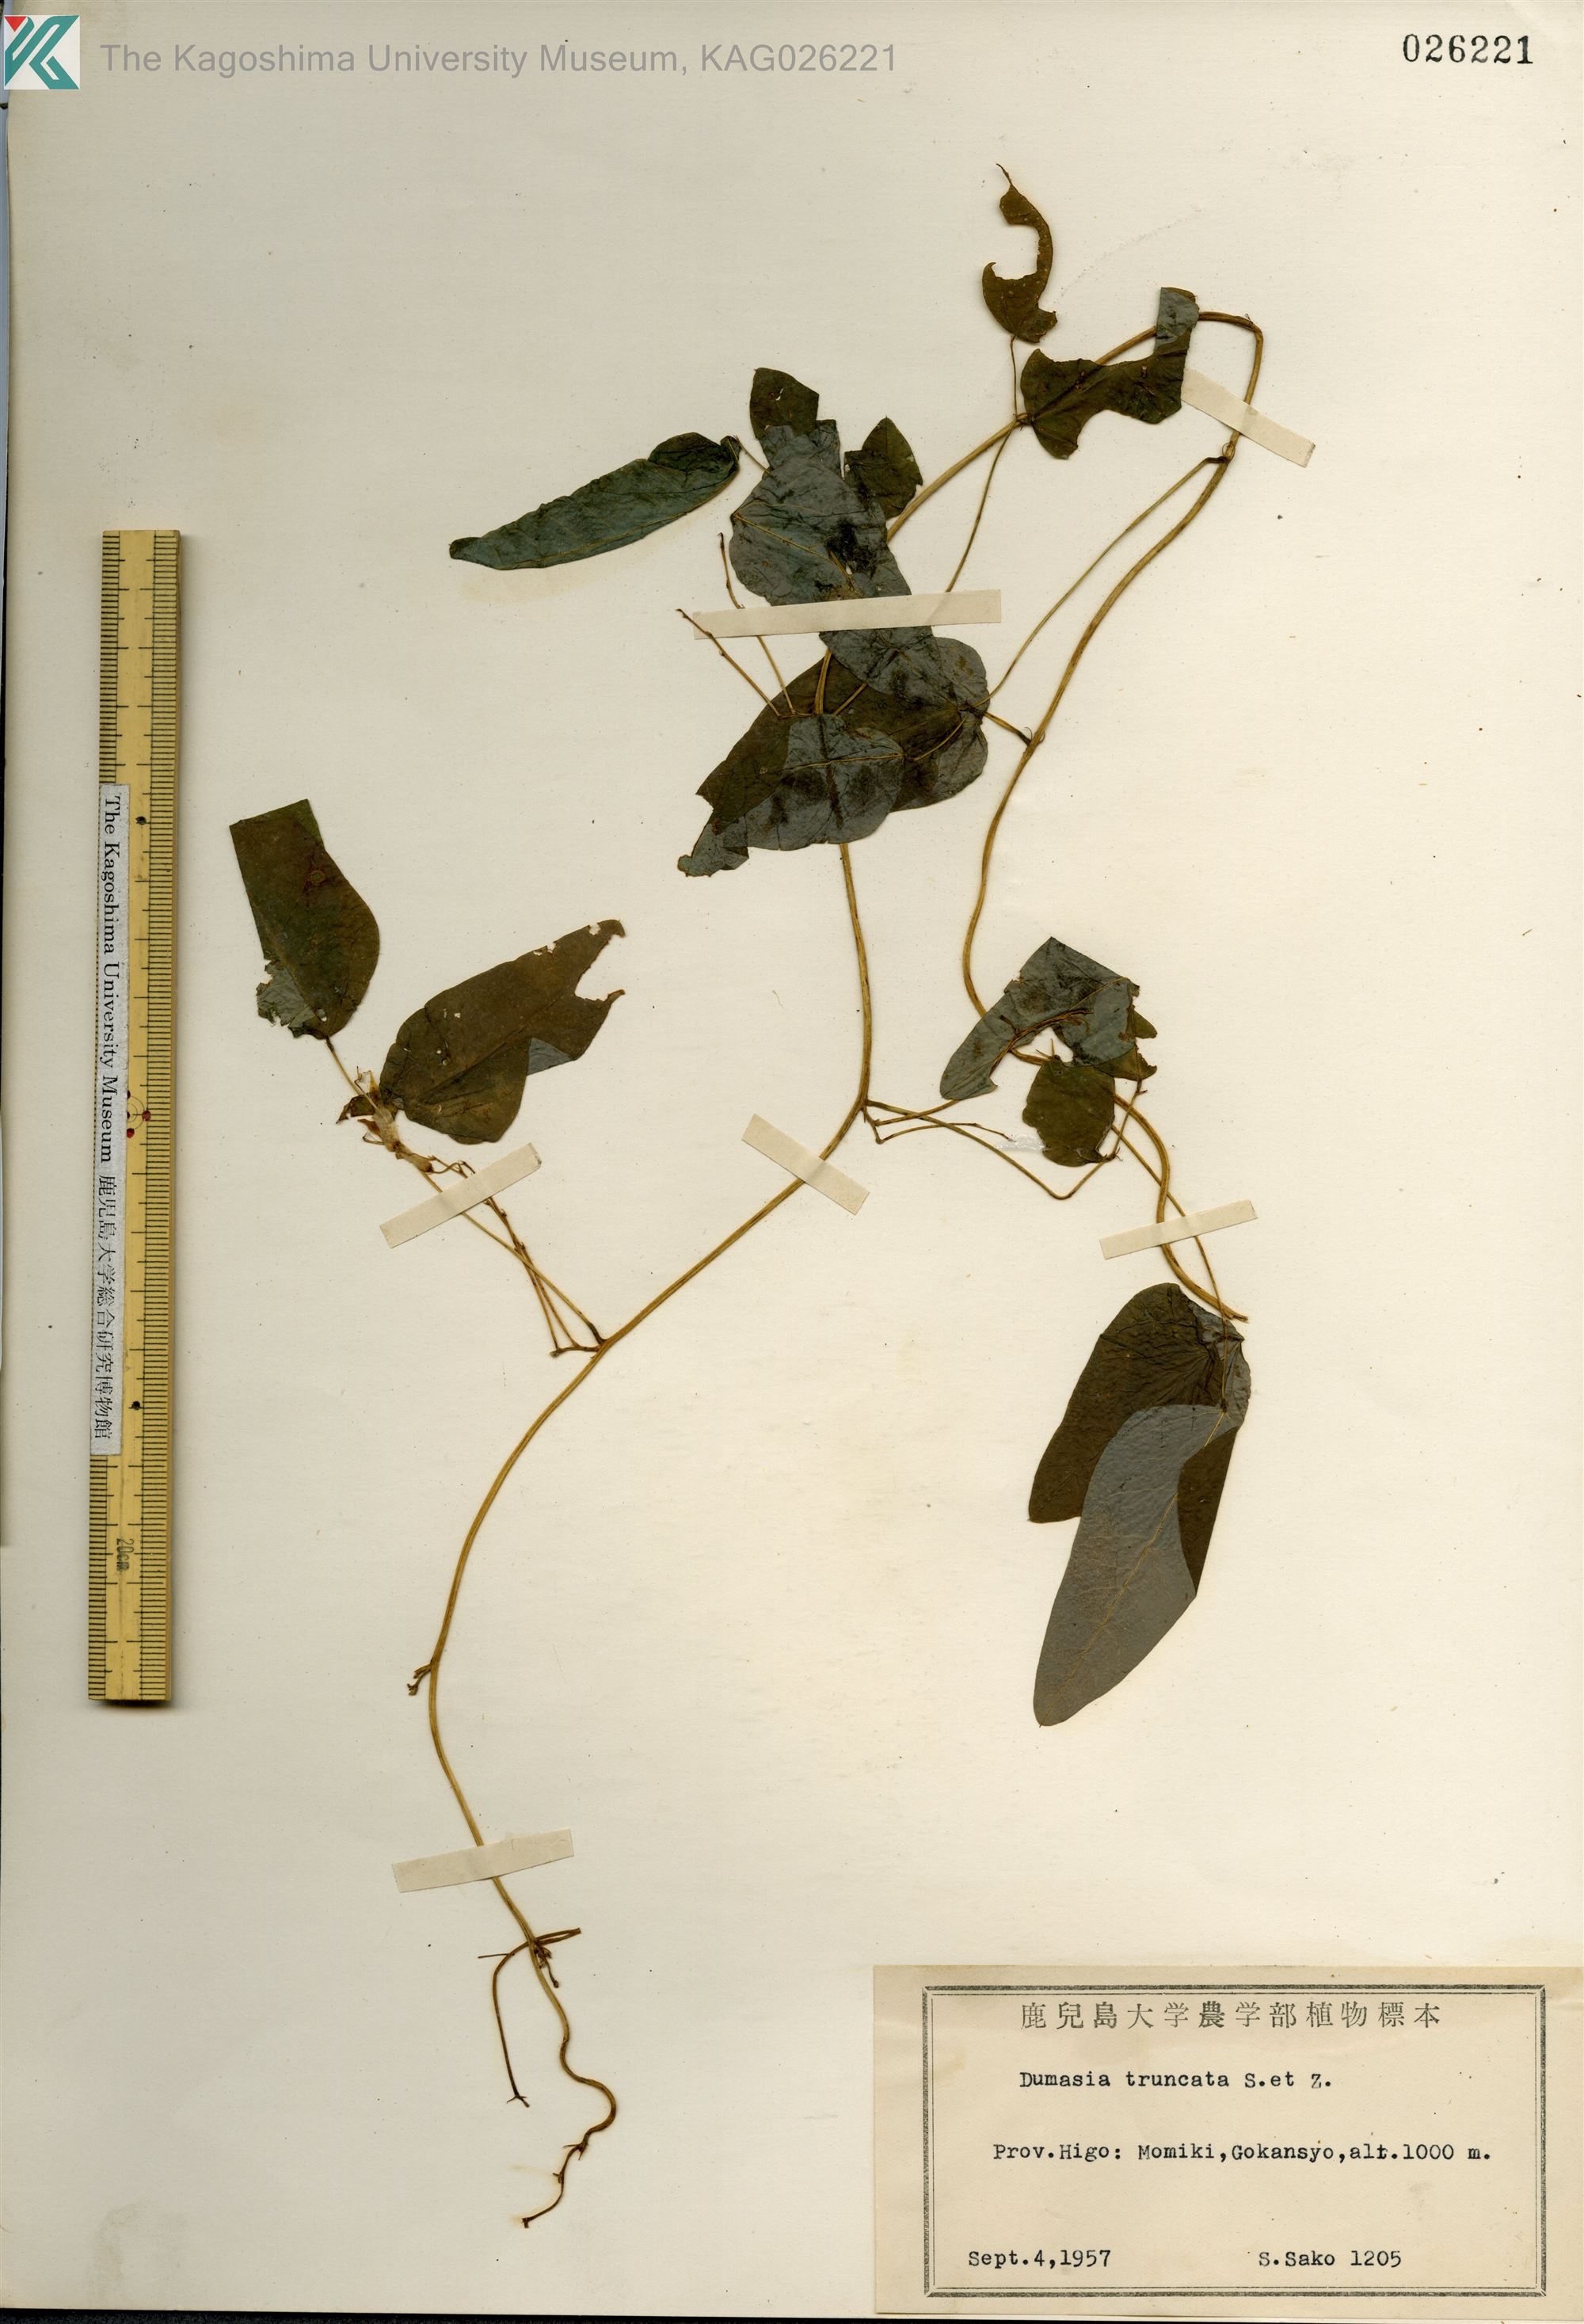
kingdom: Plantae
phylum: Tracheophyta
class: Magnoliopsida
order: Fabales
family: Fabaceae
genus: Dumasia
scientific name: Dumasia truncata
